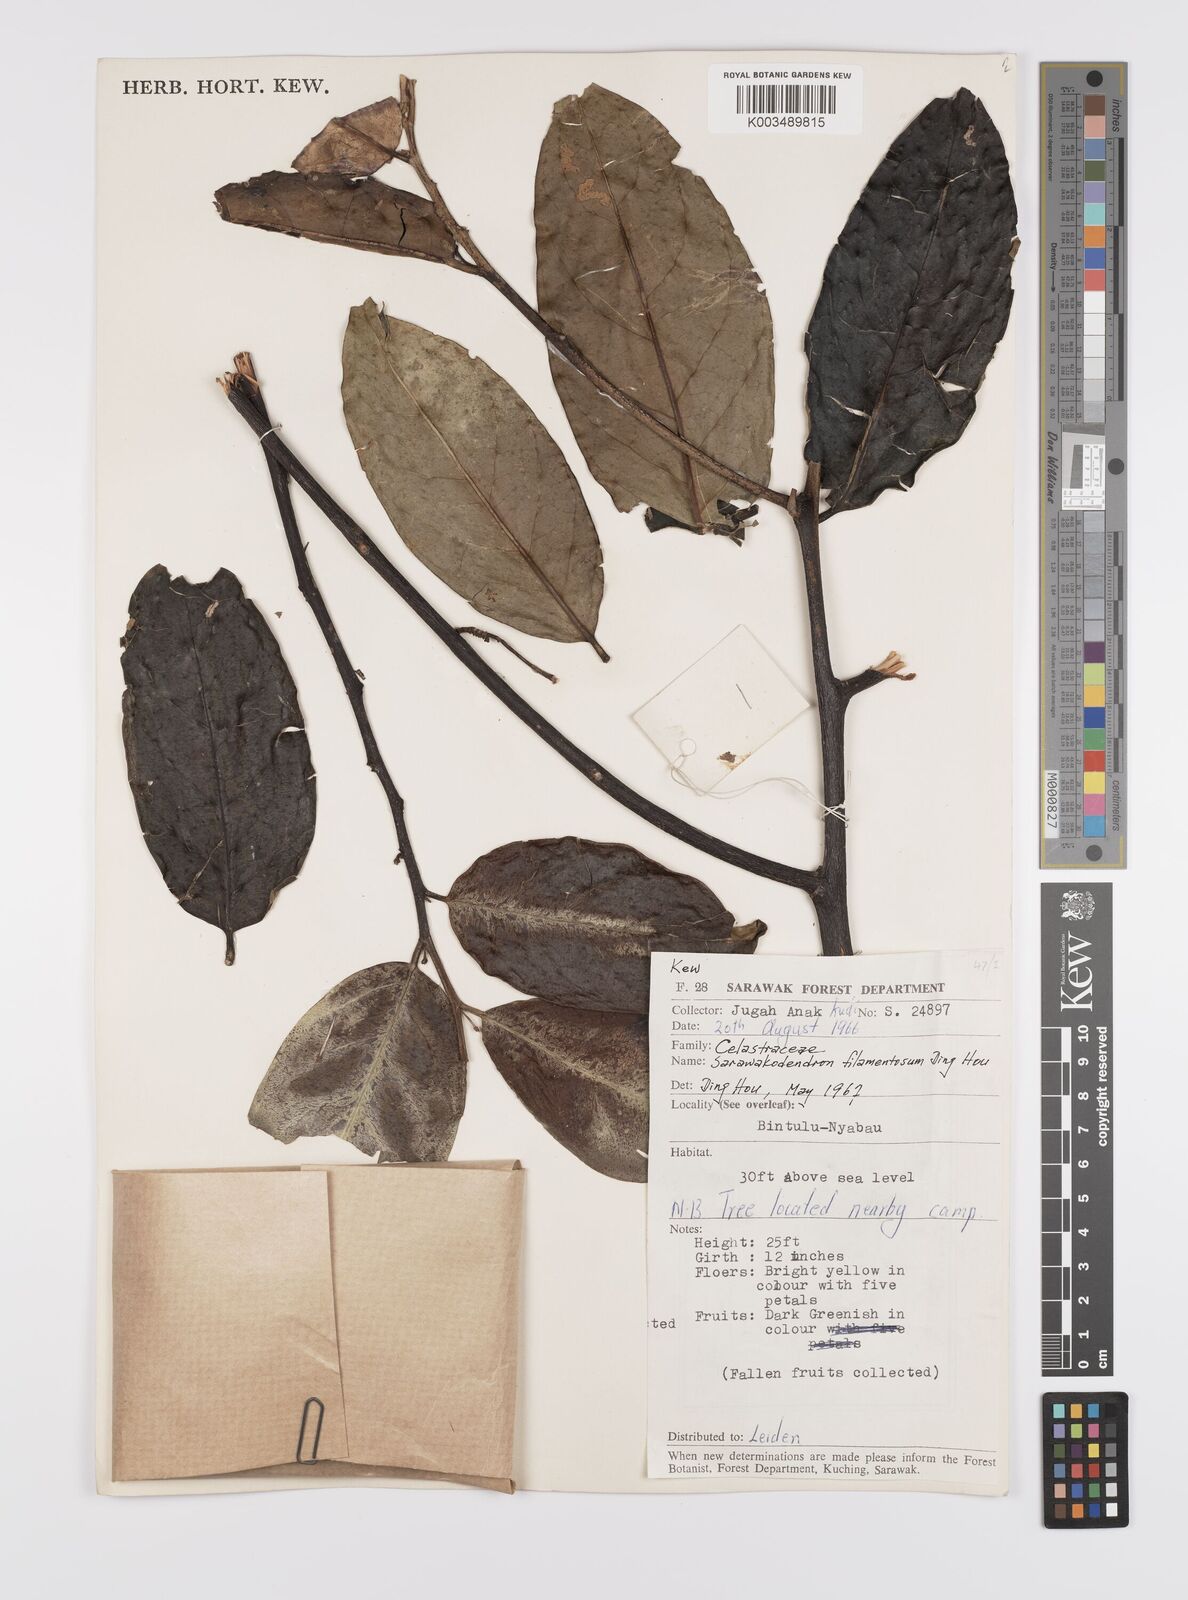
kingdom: Plantae
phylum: Tracheophyta
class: Magnoliopsida
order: Celastrales
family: Celastraceae
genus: Sarawakodendron
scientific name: Sarawakodendron filamentosum
